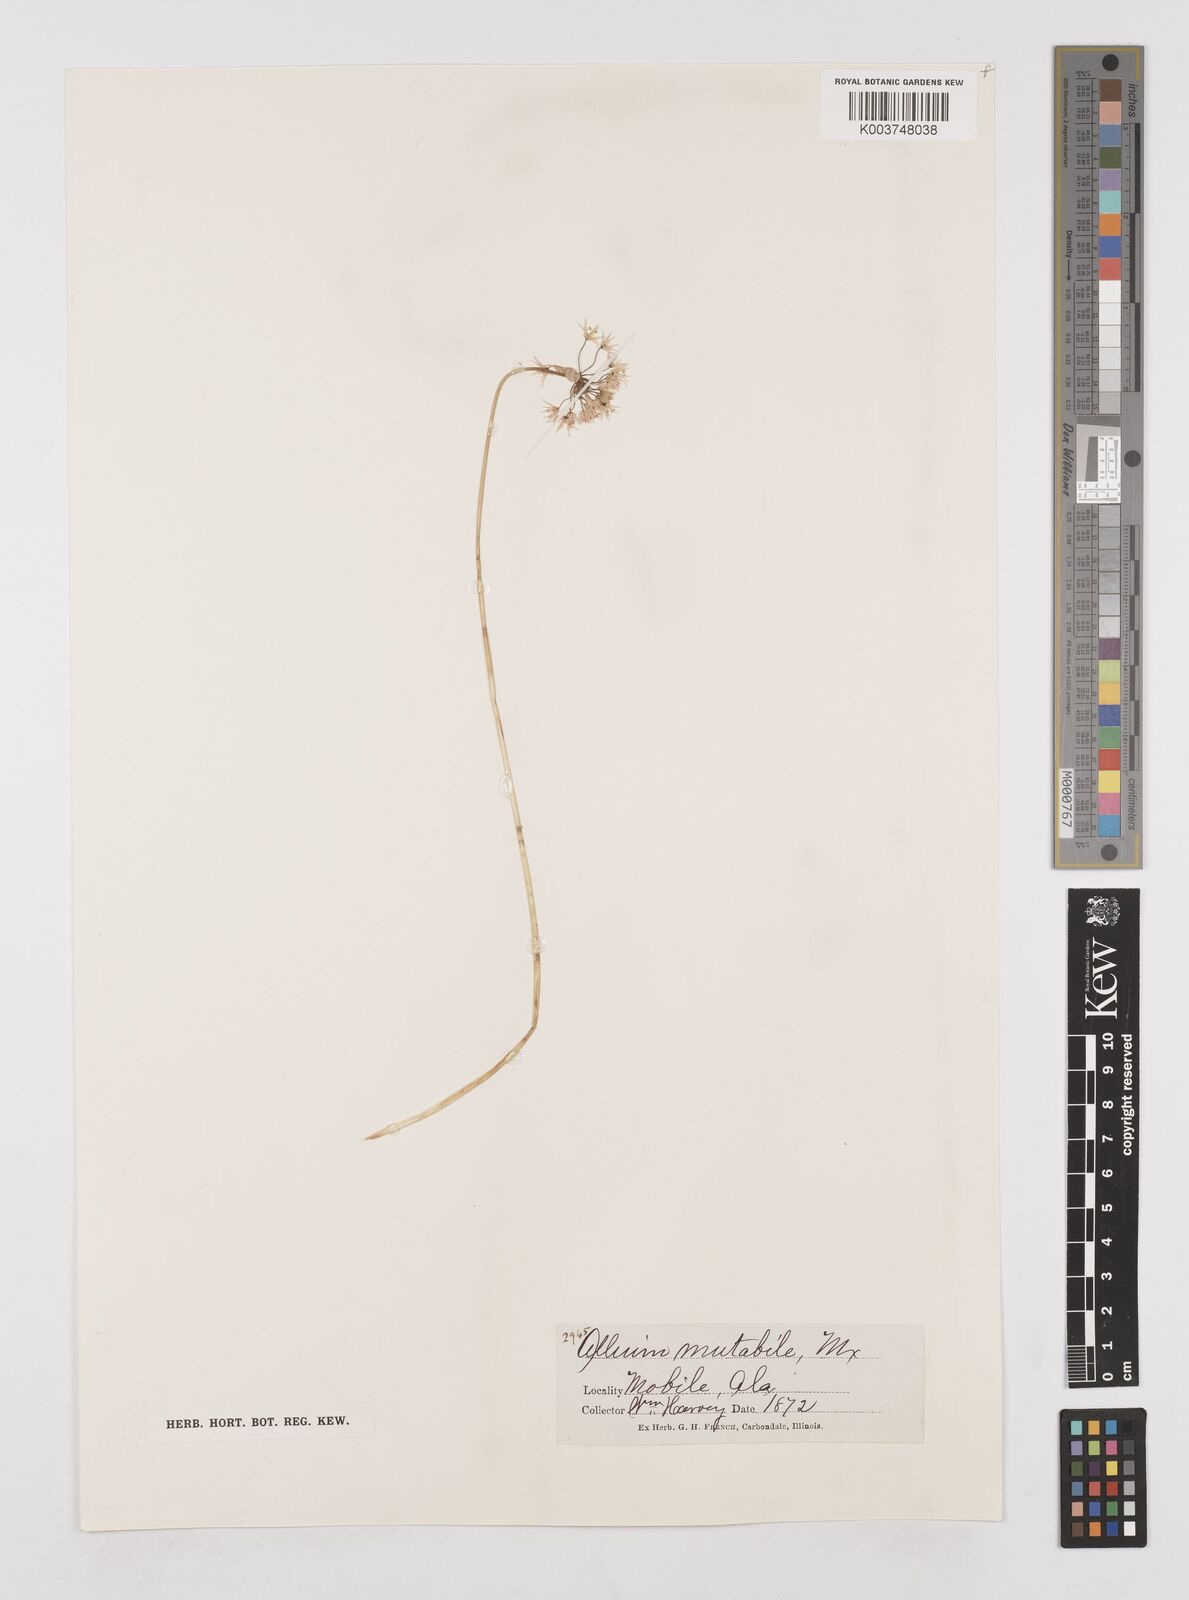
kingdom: Plantae
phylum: Tracheophyta
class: Liliopsida
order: Asparagales
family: Amaryllidaceae
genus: Allium
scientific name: Allium fraseri
